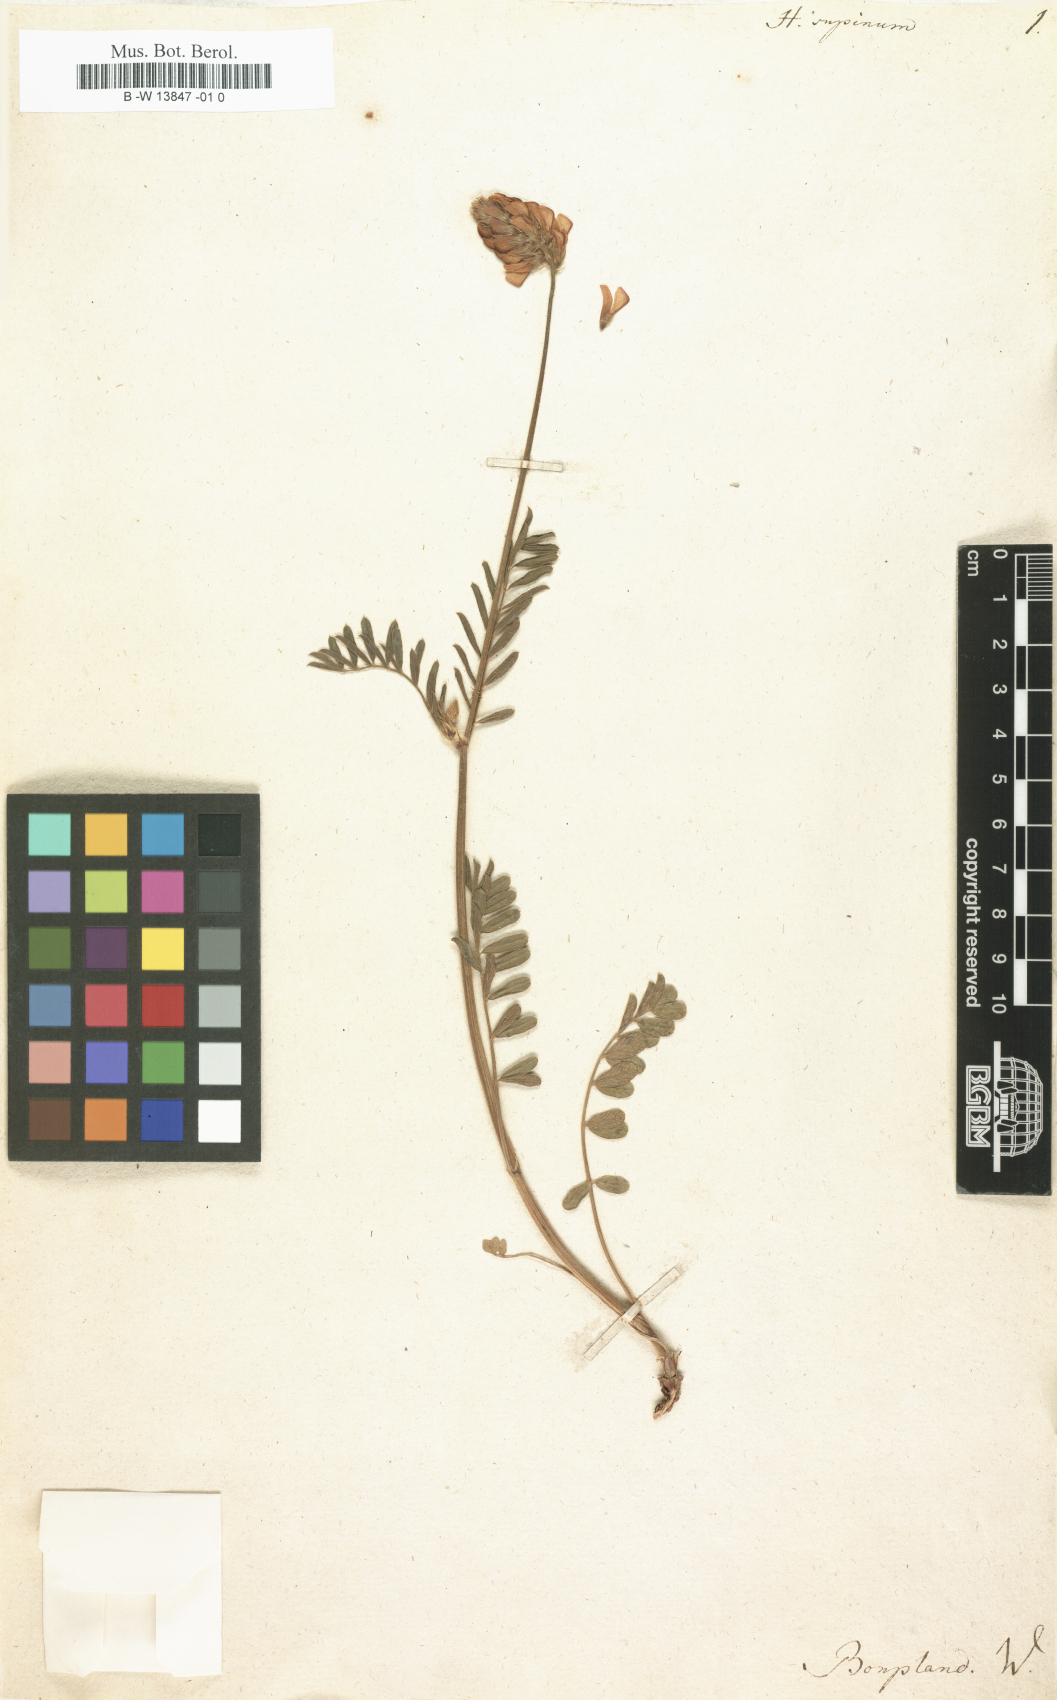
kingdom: Plantae
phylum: Tracheophyta
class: Magnoliopsida
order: Fabales
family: Fabaceae
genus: Onobrychis
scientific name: Onobrychis supina
